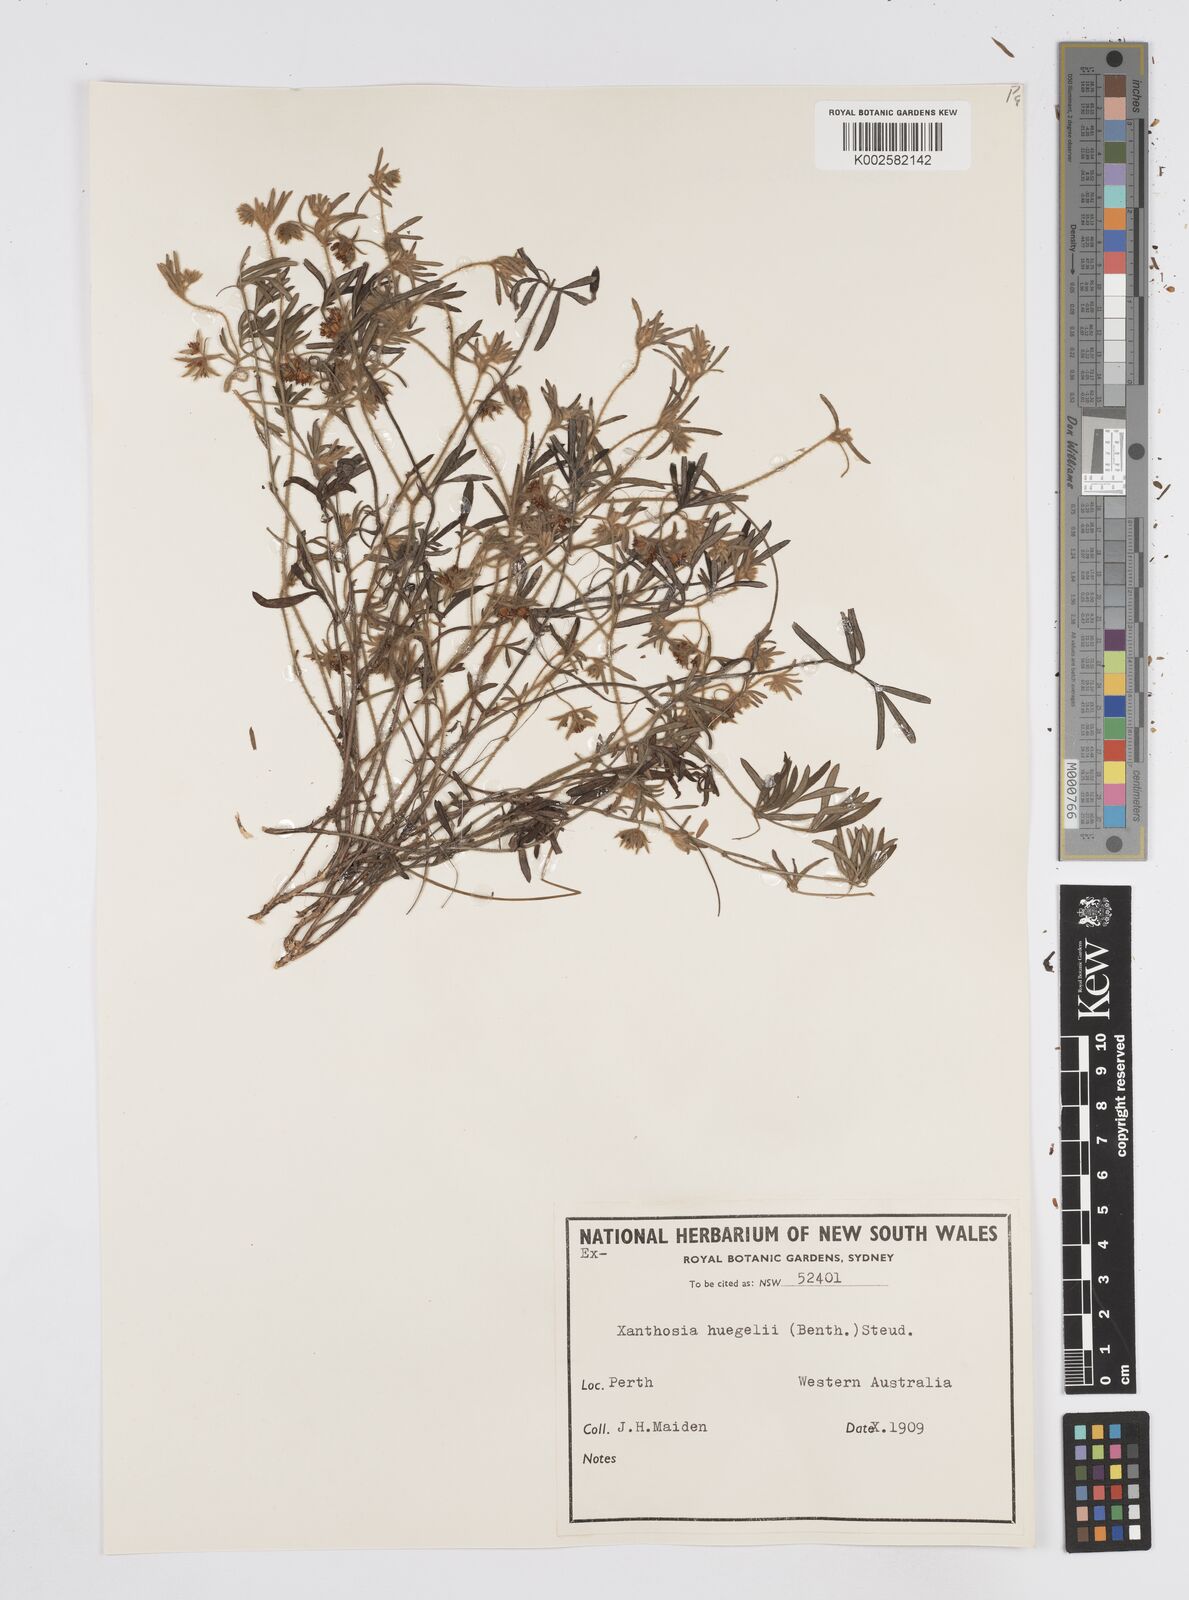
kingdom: Plantae
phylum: Tracheophyta
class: Magnoliopsida
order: Apiales
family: Apiaceae
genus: Xanthosia
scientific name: Xanthosia huegelii
